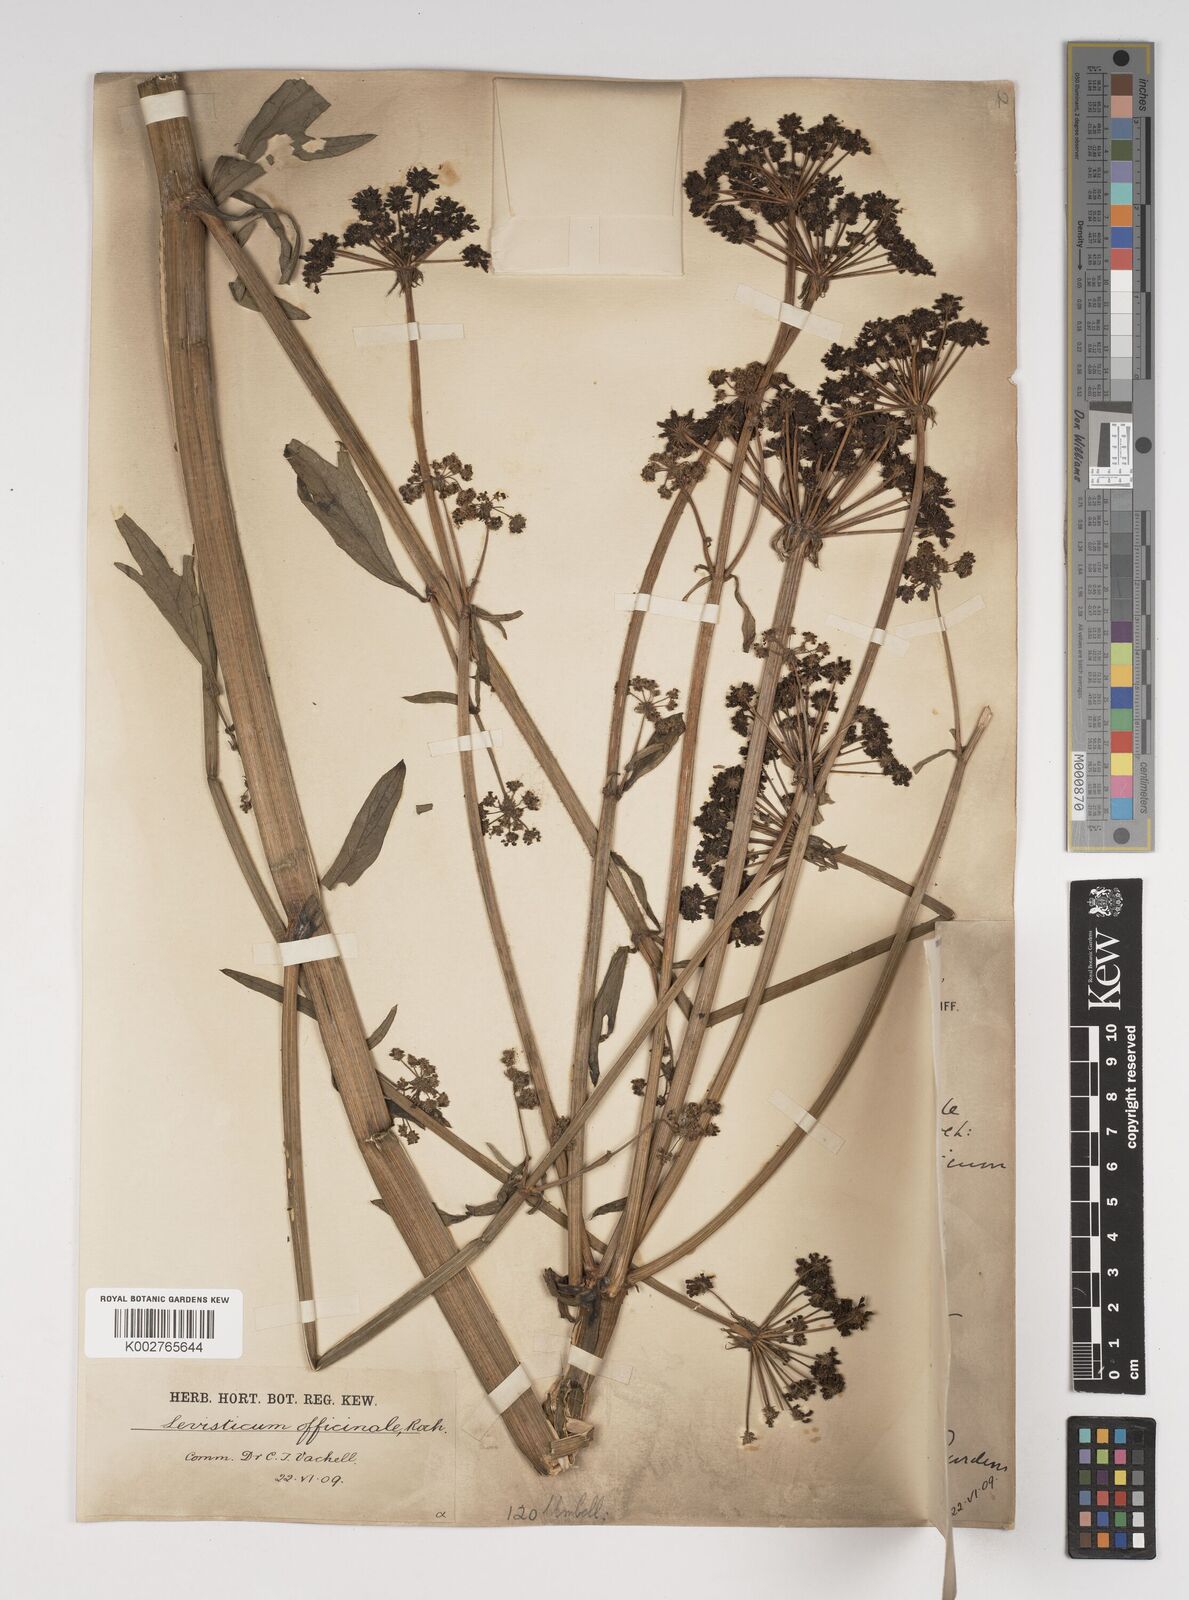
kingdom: Plantae
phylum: Tracheophyta
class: Magnoliopsida
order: Apiales
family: Apiaceae
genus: Levisticum
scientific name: Levisticum officinale
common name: Lovage
